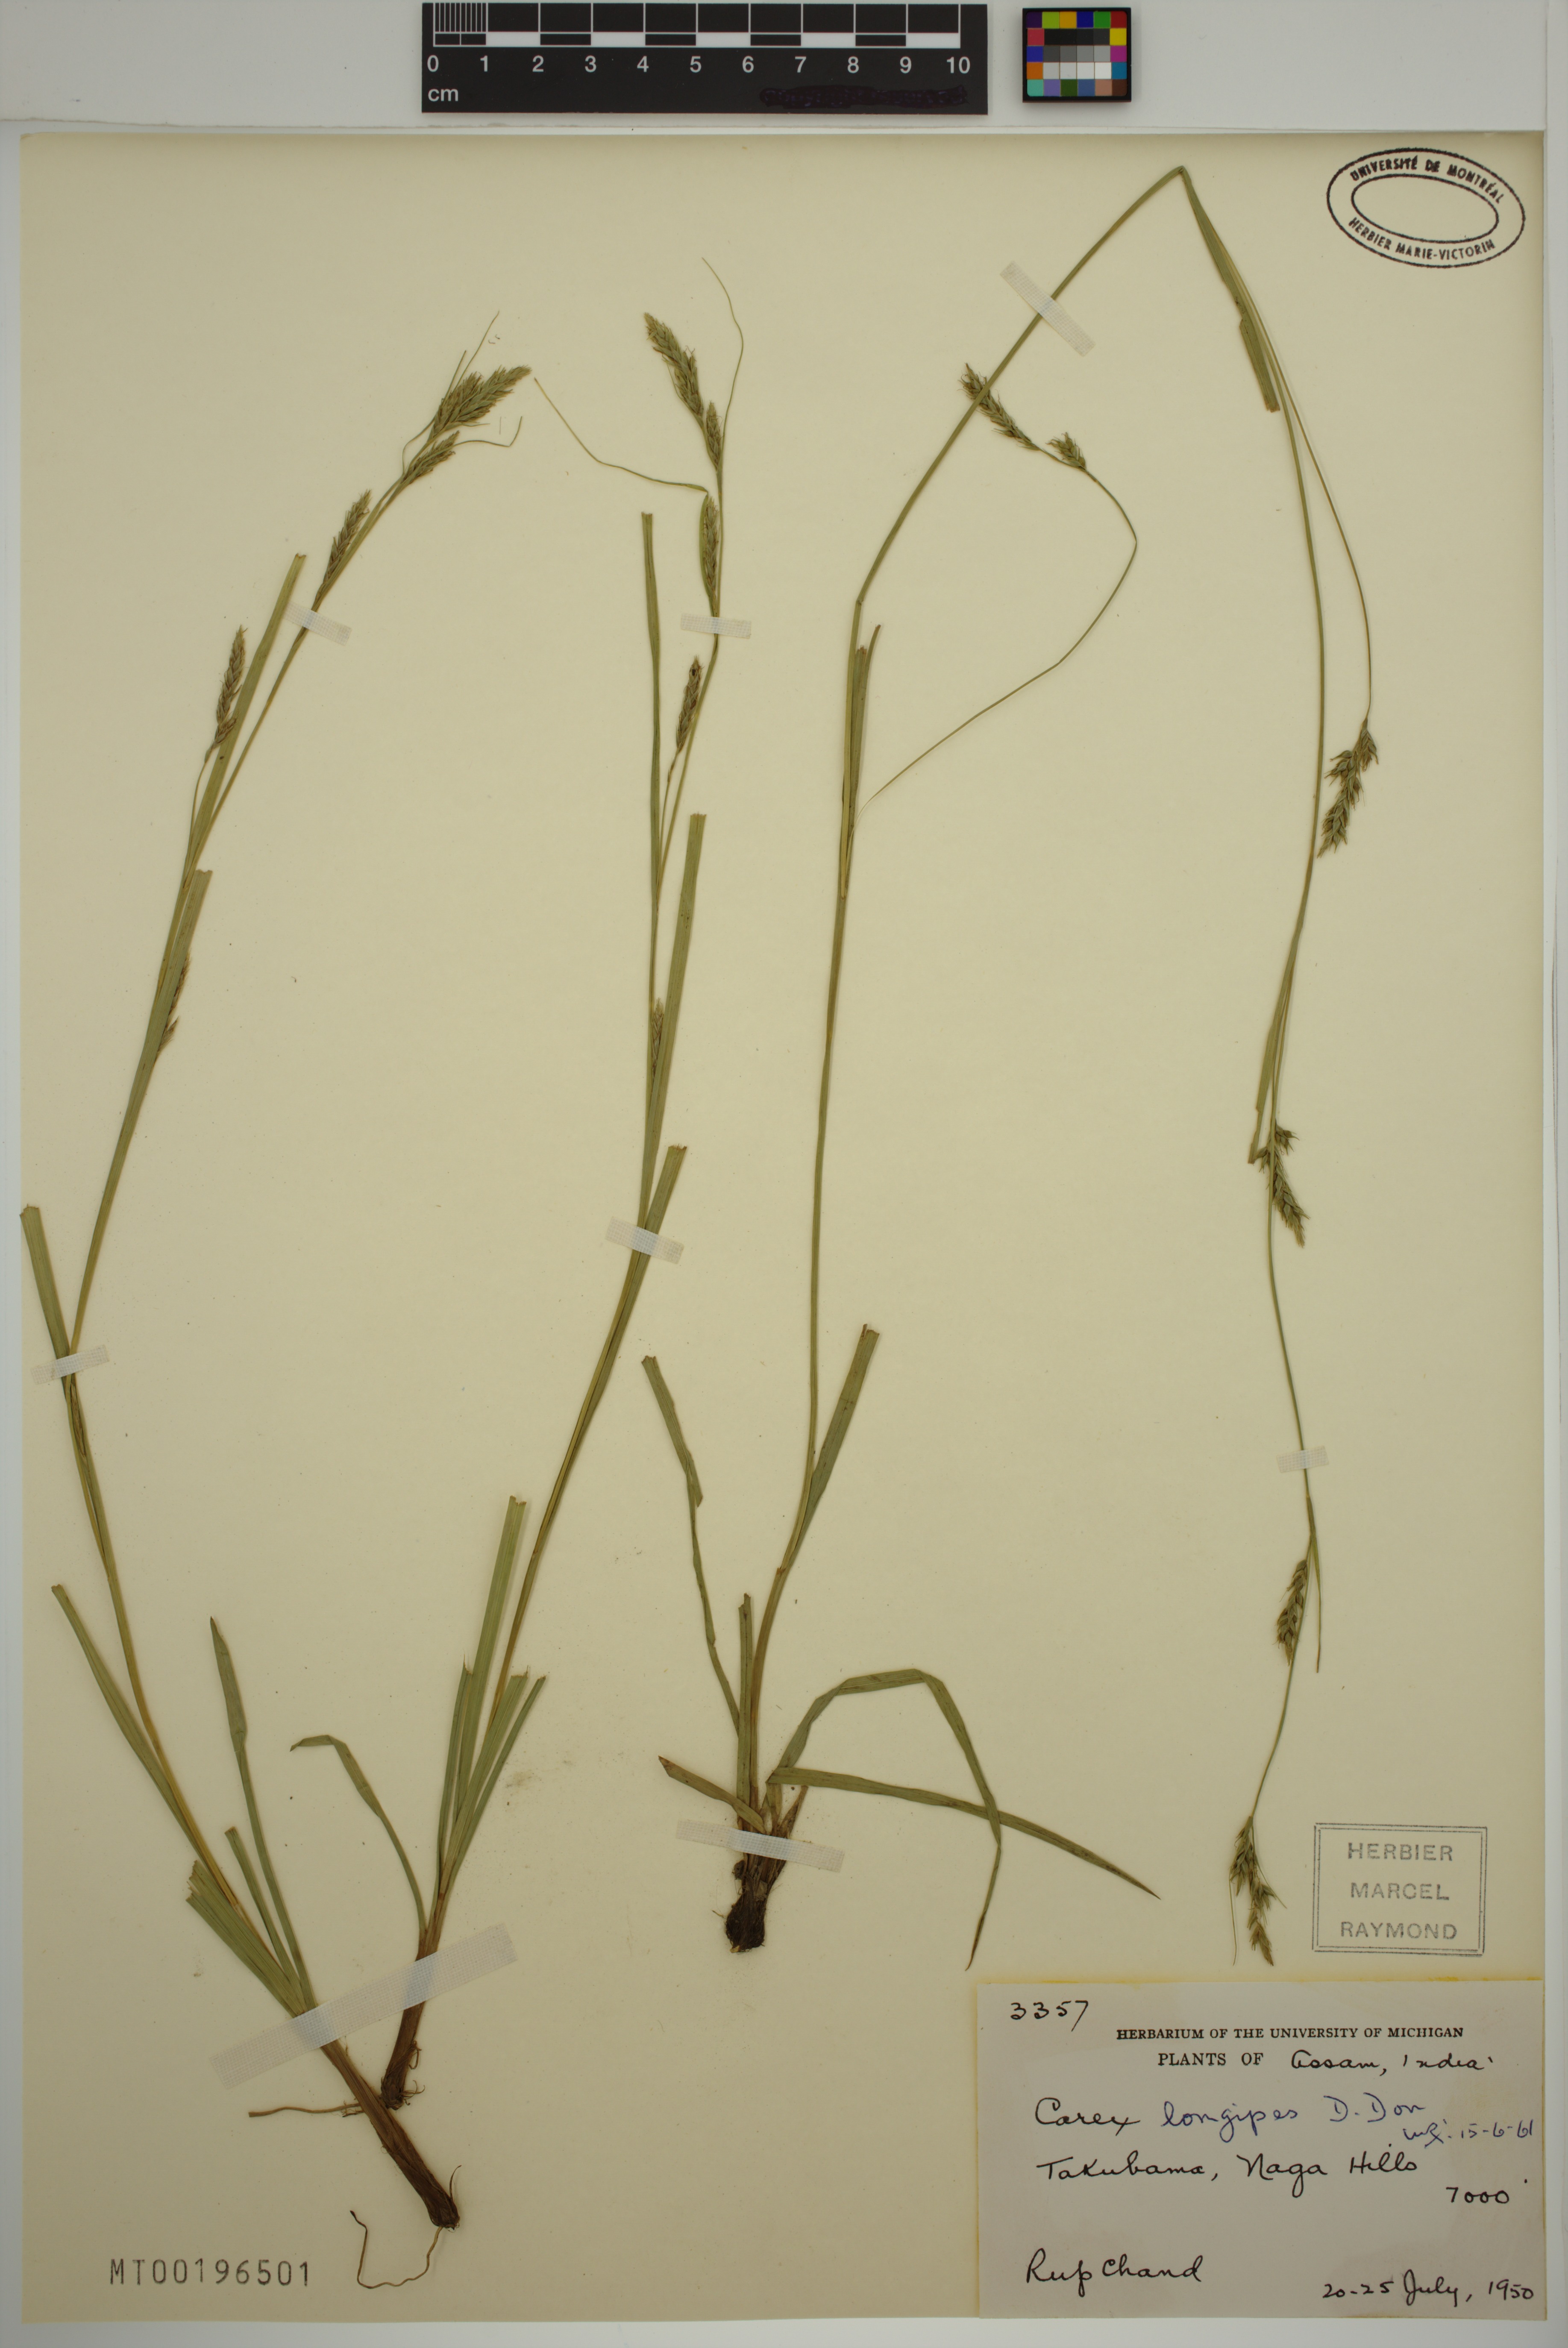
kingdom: Plantae
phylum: Tracheophyta
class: Liliopsida
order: Poales
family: Cyperaceae
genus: Carex
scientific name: Carex longipes
